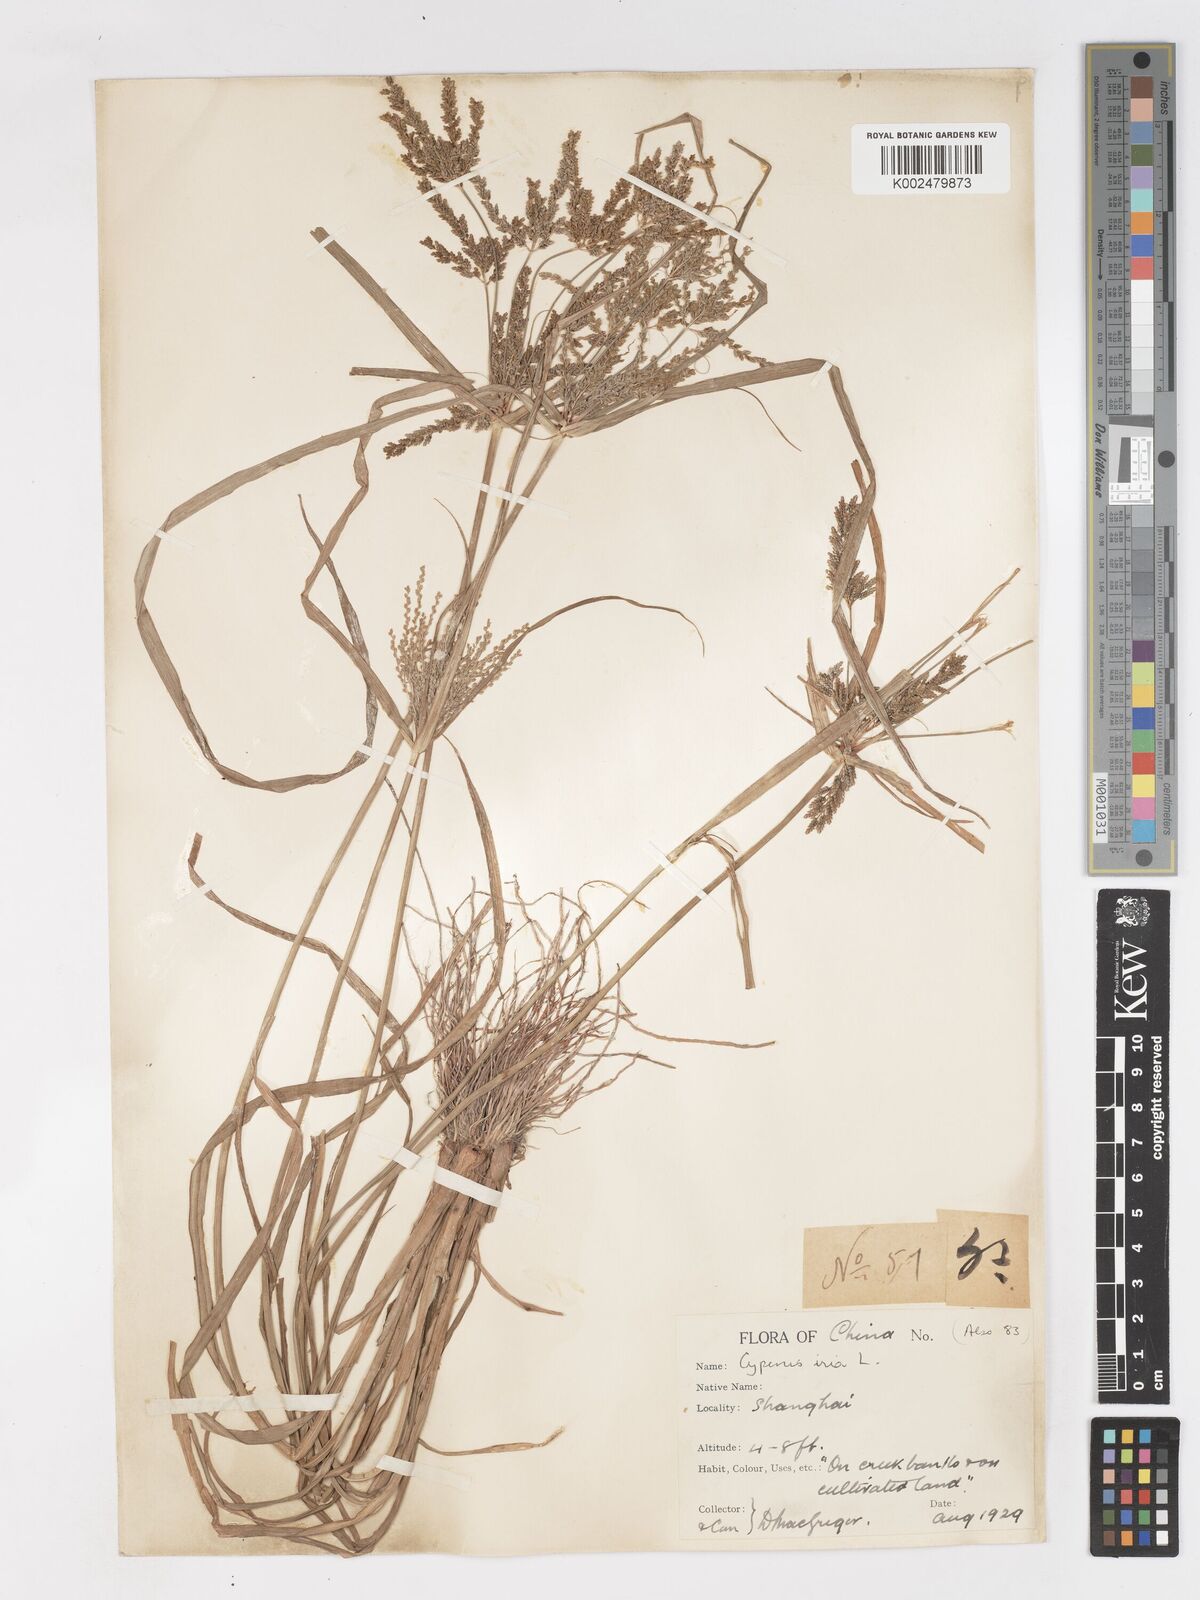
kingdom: Plantae
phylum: Tracheophyta
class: Liliopsida
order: Poales
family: Cyperaceae
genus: Cyperus
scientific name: Cyperus iria
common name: Ricefield flatsedge
